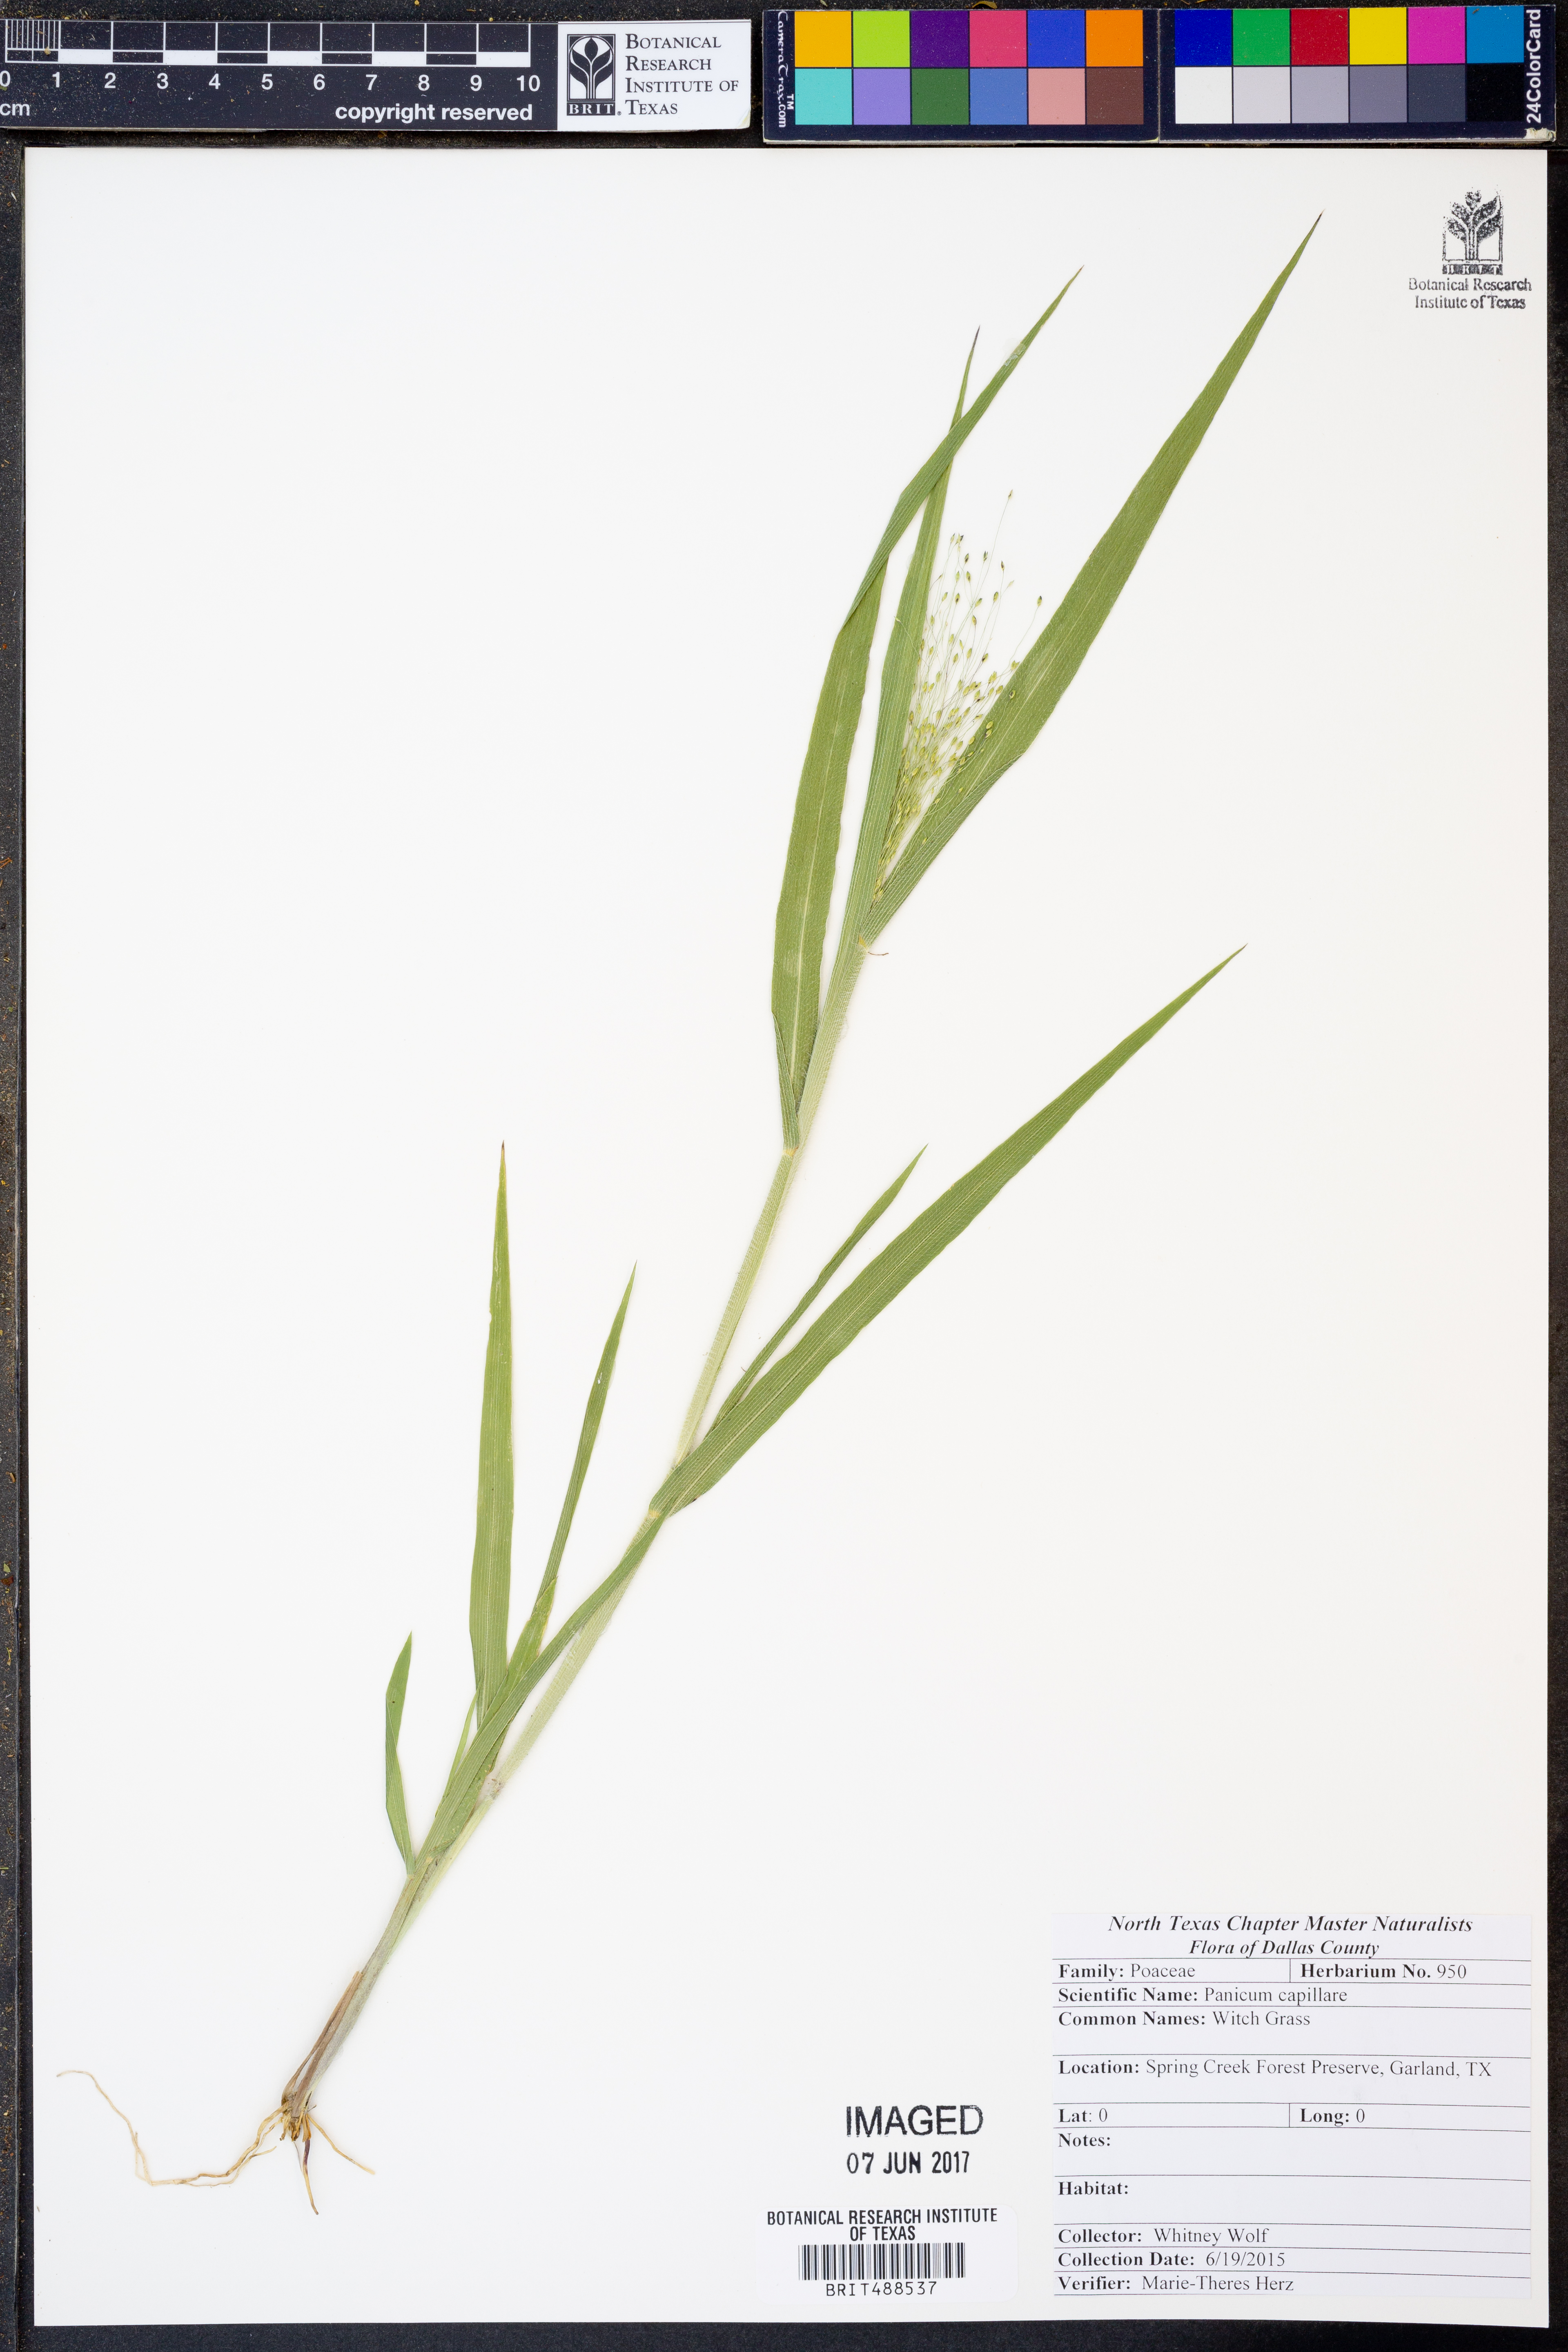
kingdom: Plantae
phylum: Tracheophyta
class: Liliopsida
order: Poales
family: Poaceae
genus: Panicum
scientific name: Panicum capillare
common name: Witch-grass
